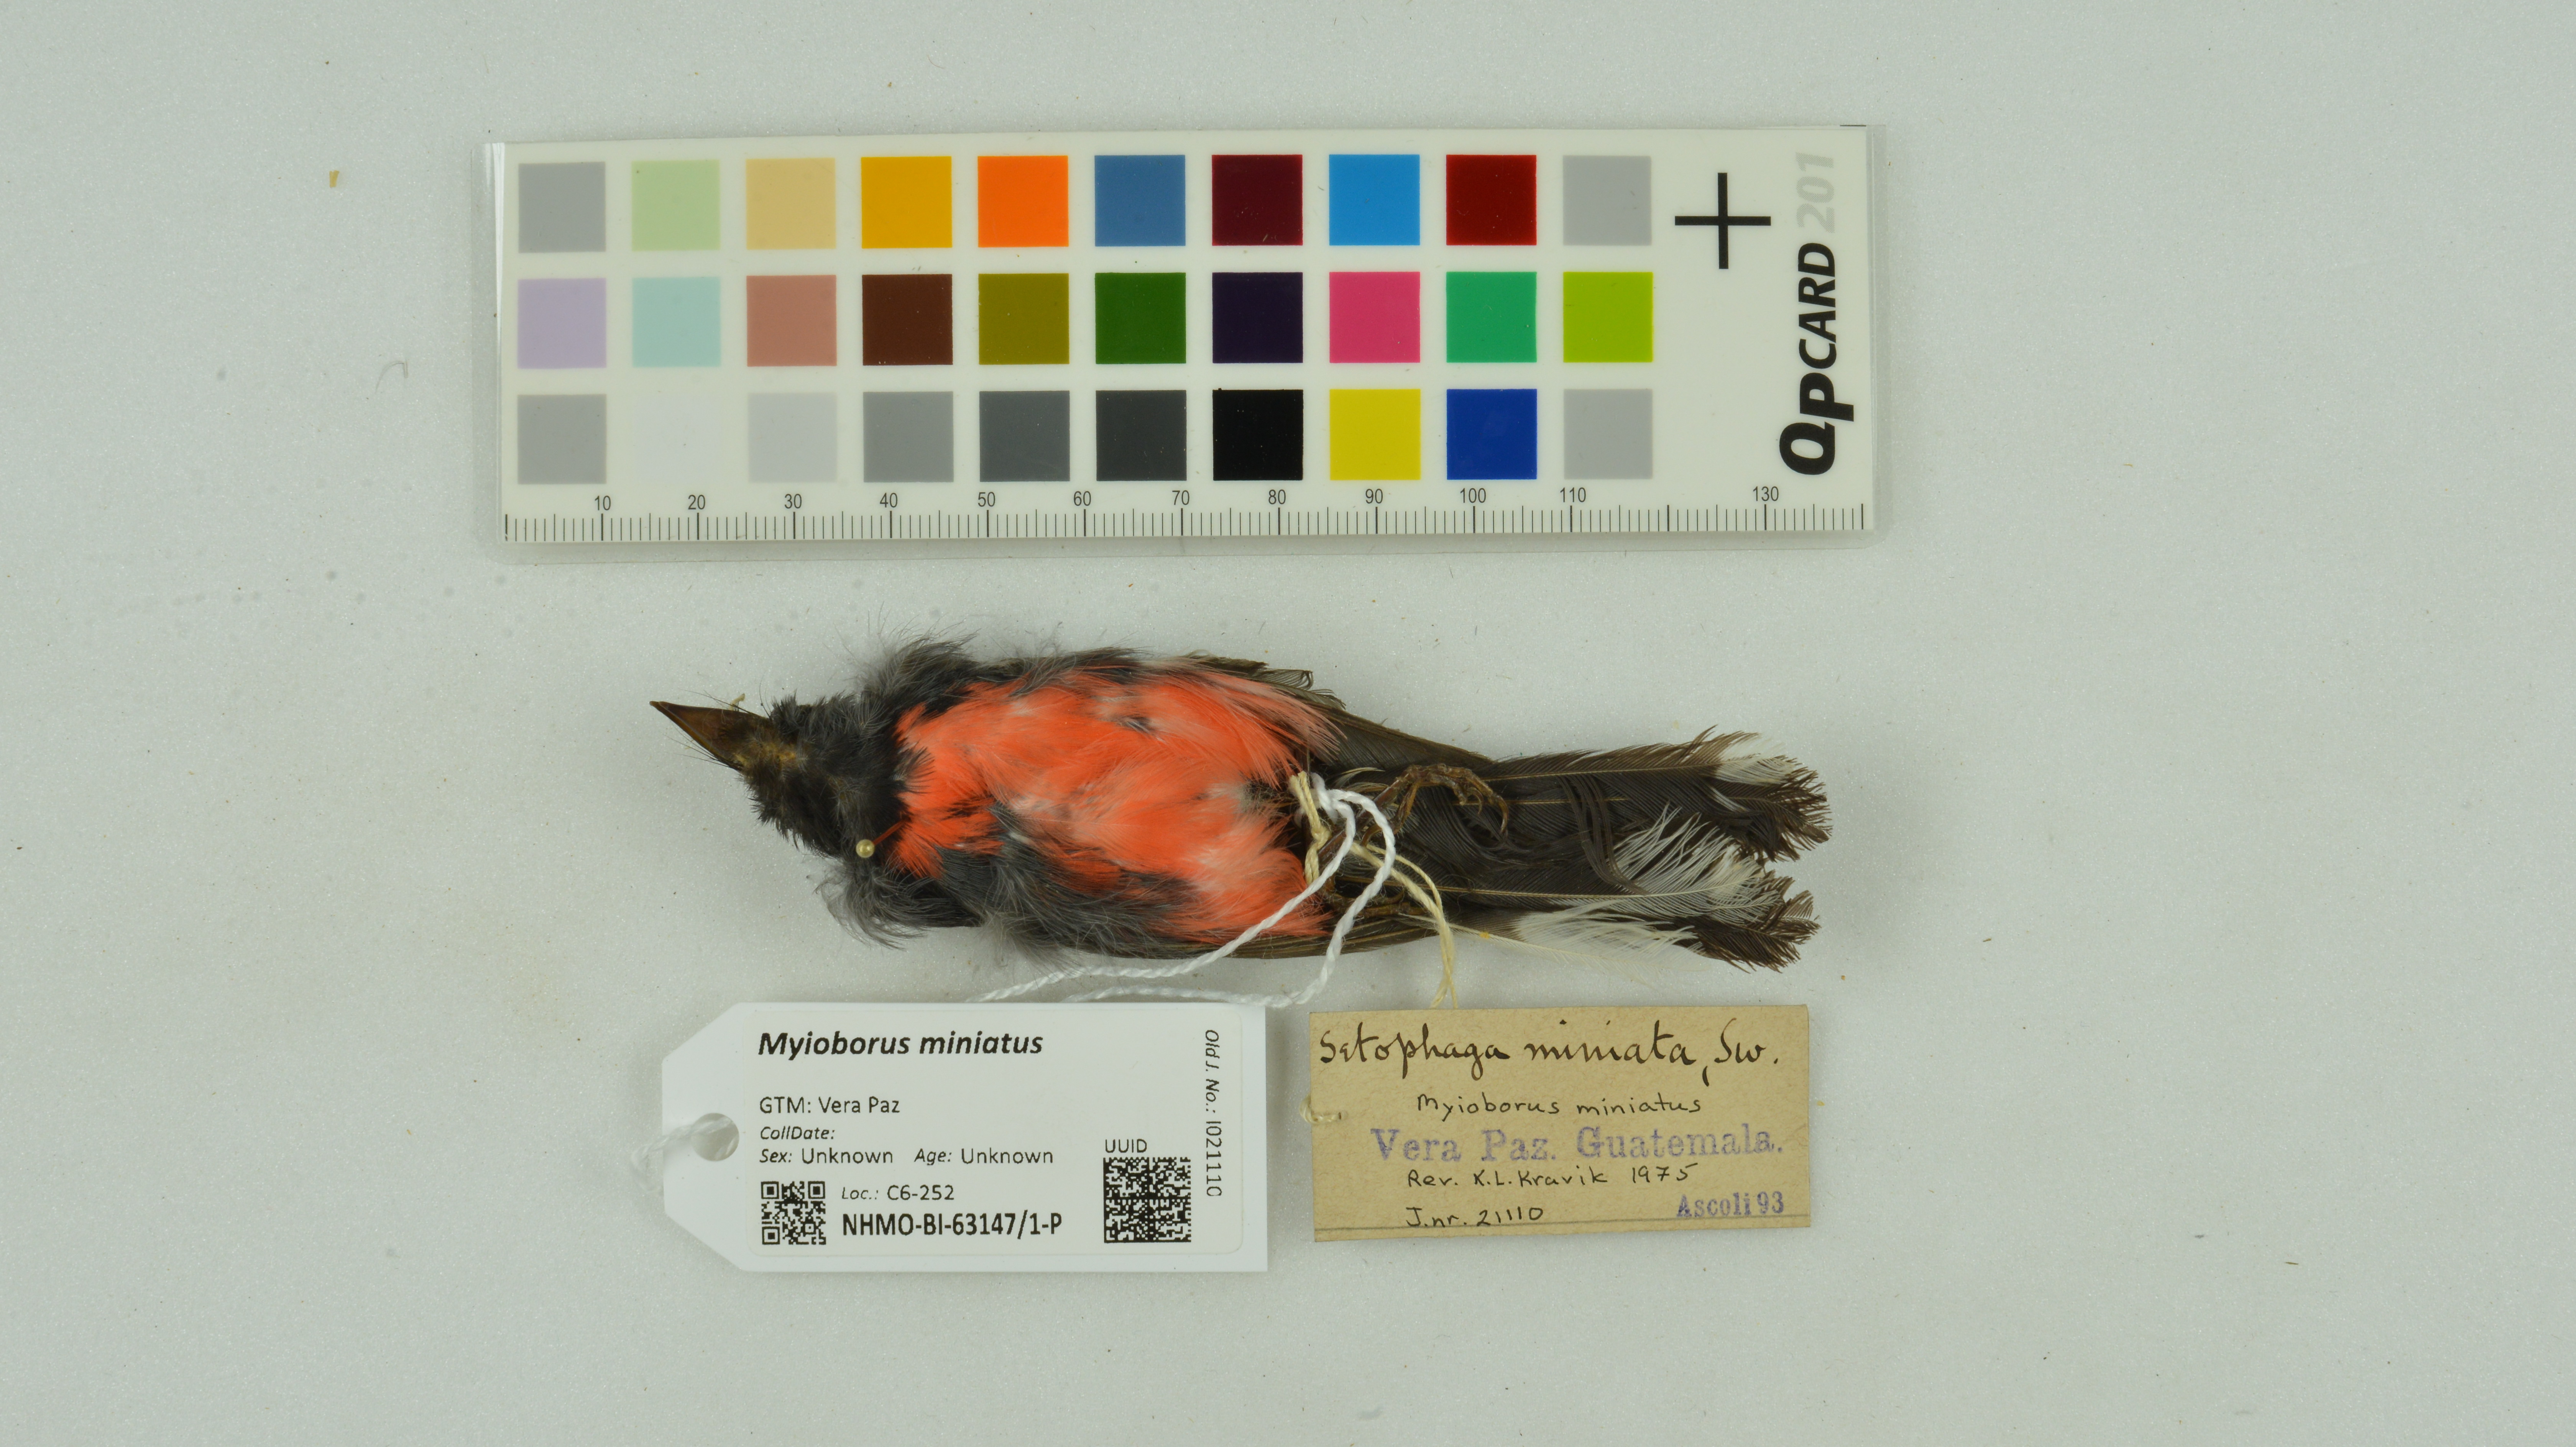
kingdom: Animalia
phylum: Chordata
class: Aves
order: Passeriformes
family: Parulidae
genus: Myioborus
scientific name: Myioborus miniatus
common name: Slate-throated redstart
